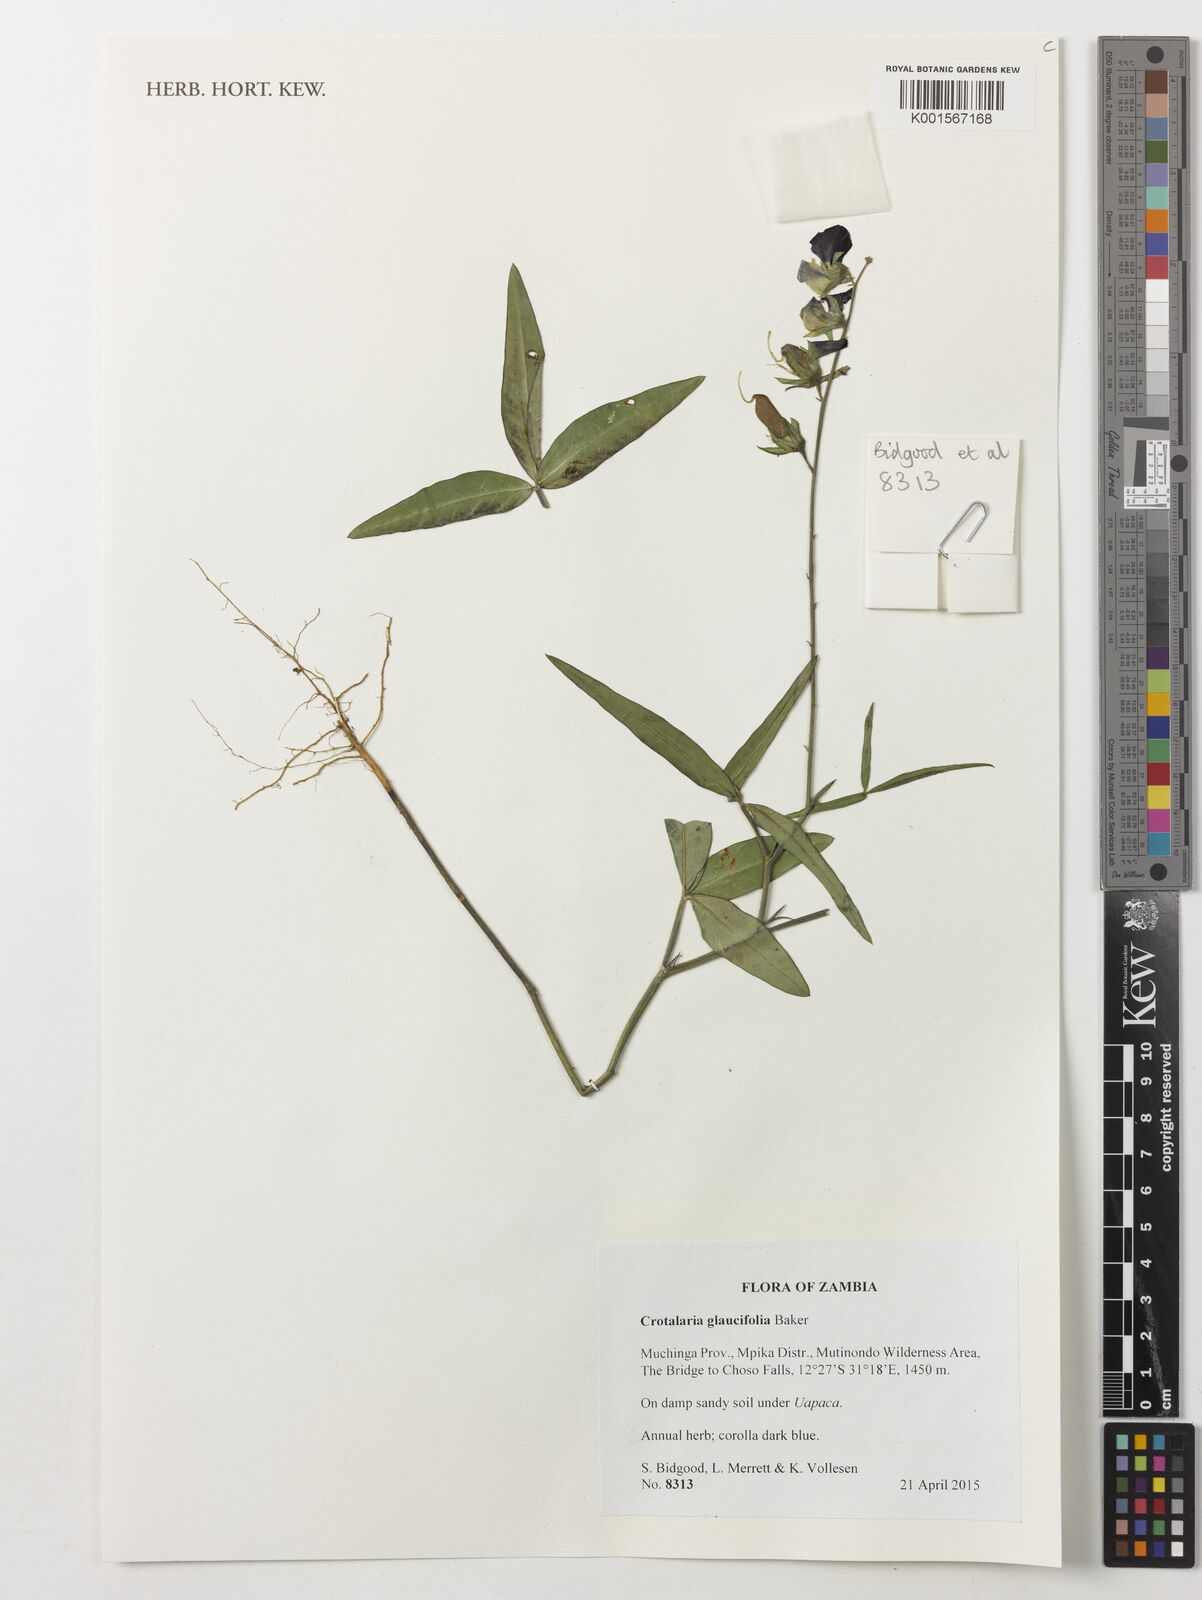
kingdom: Plantae
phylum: Tracheophyta
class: Magnoliopsida
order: Fabales
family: Fabaceae
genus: Crotalaria
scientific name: Crotalaria glaucifolia
